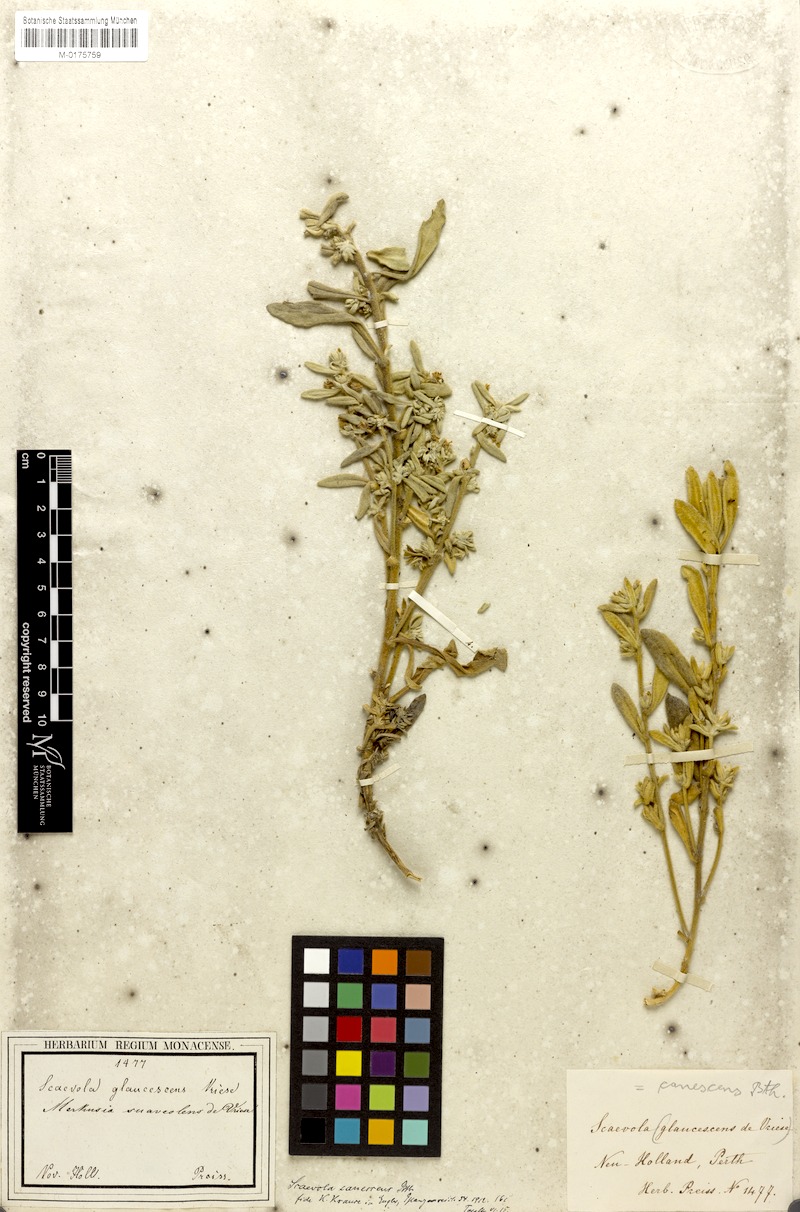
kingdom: Plantae
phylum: Tracheophyta
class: Magnoliopsida
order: Asterales
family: Goodeniaceae
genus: Scaevola
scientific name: Scaevola canescens
